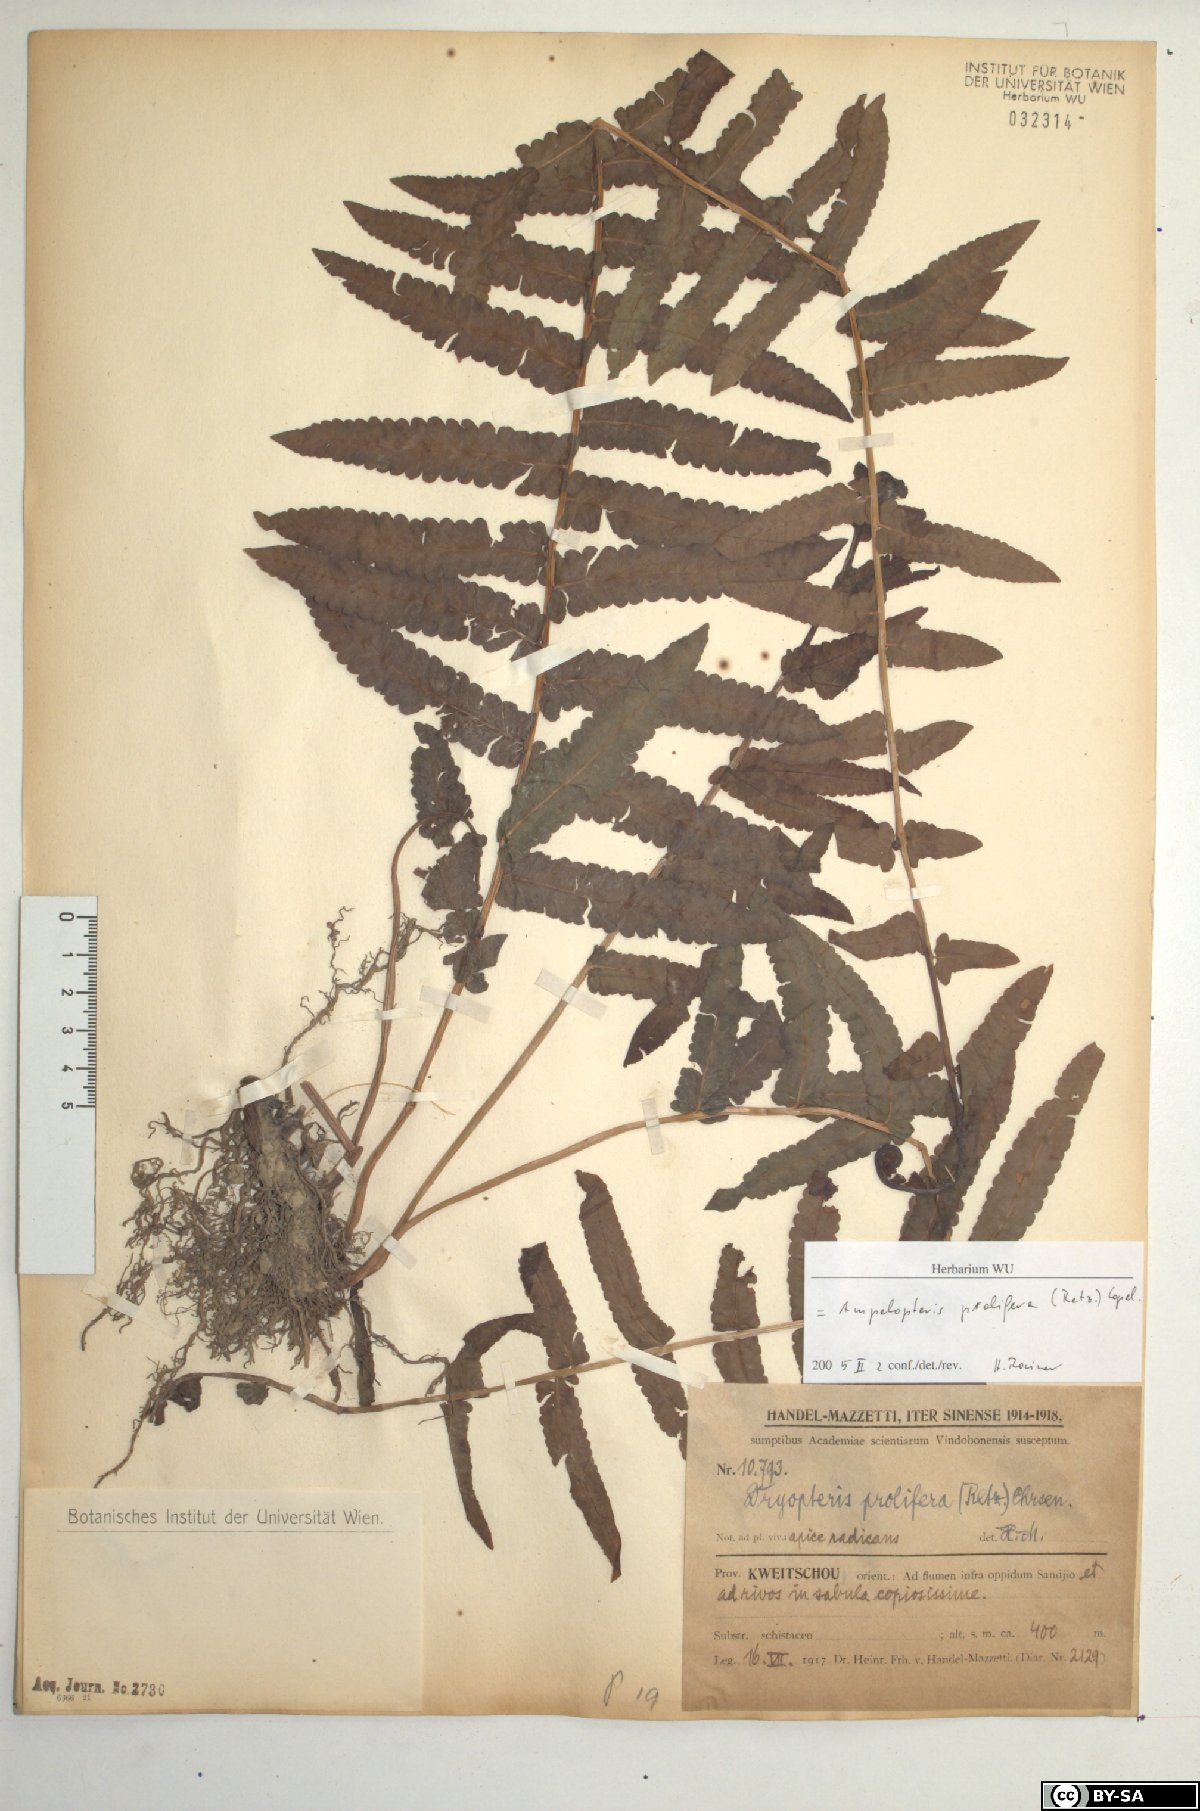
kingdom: Plantae
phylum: Tracheophyta
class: Polypodiopsida
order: Polypodiales
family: Thelypteridaceae
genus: Ampelopteris
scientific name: Ampelopteris prolifera
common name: Riverine scrambler
